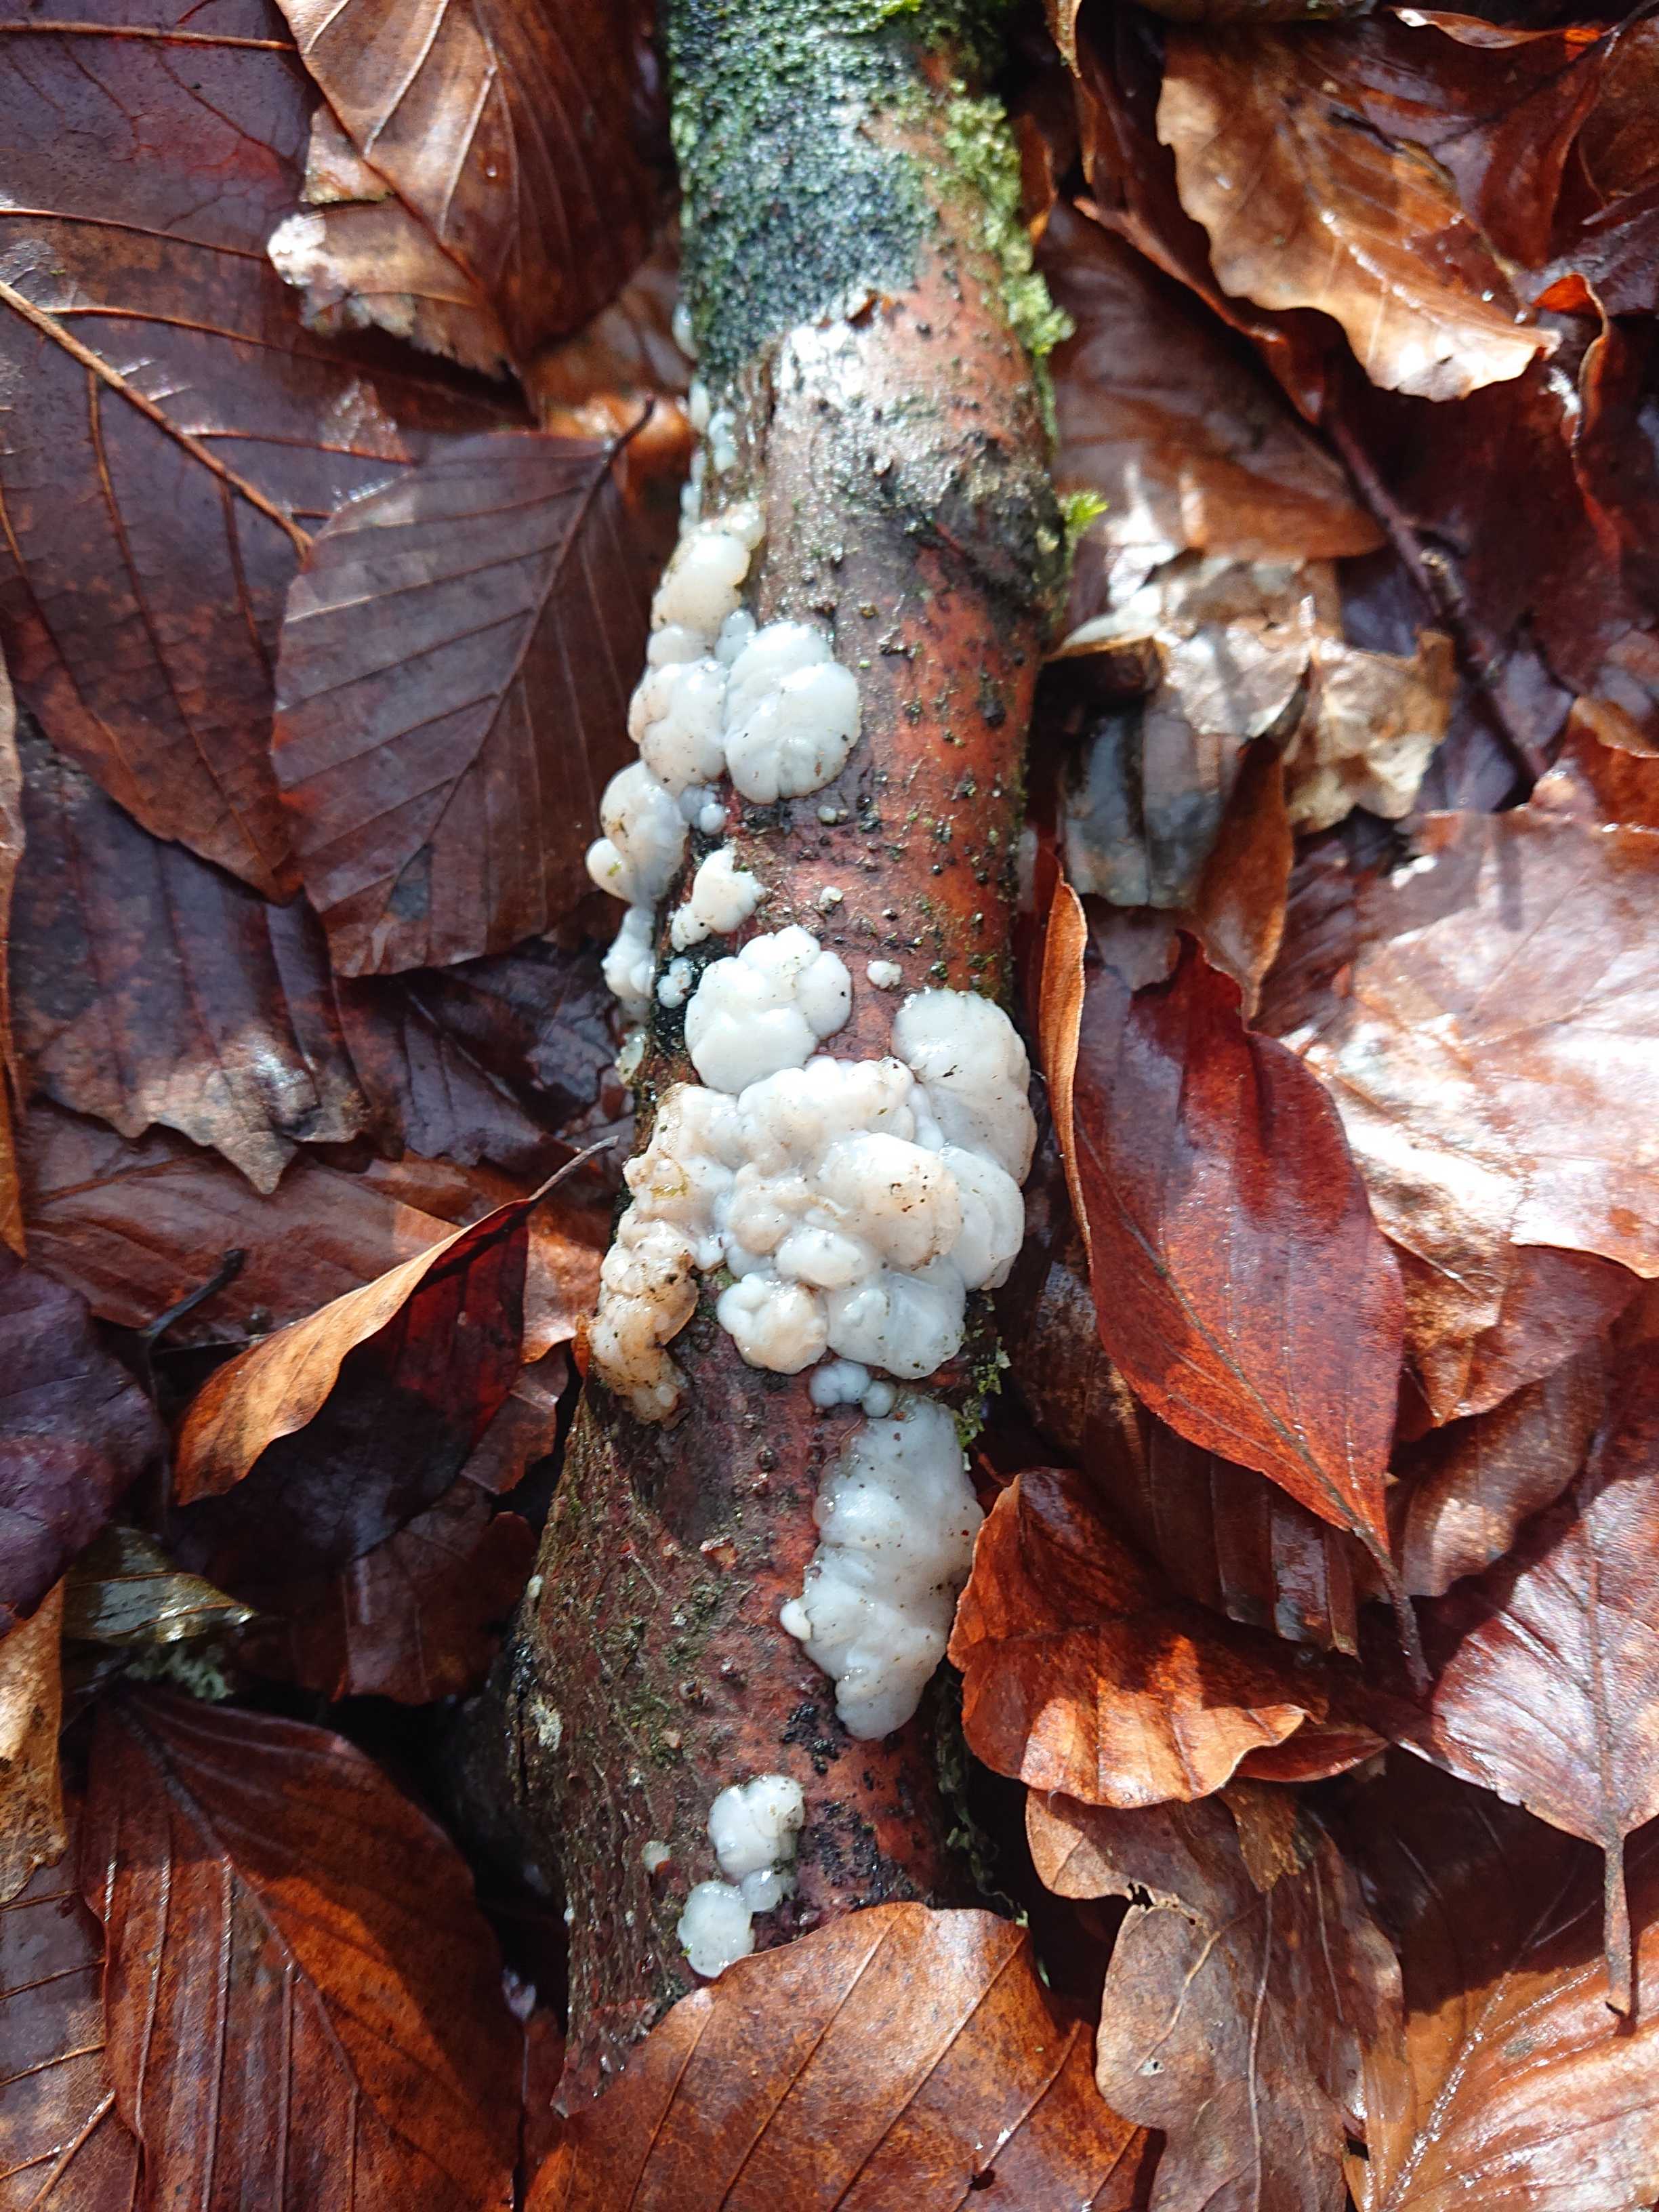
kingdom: Fungi
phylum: Basidiomycota
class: Agaricomycetes
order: Auriculariales
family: Auriculariaceae
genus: Exidia
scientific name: Exidia thuretiana
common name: hvidlig bævretop
